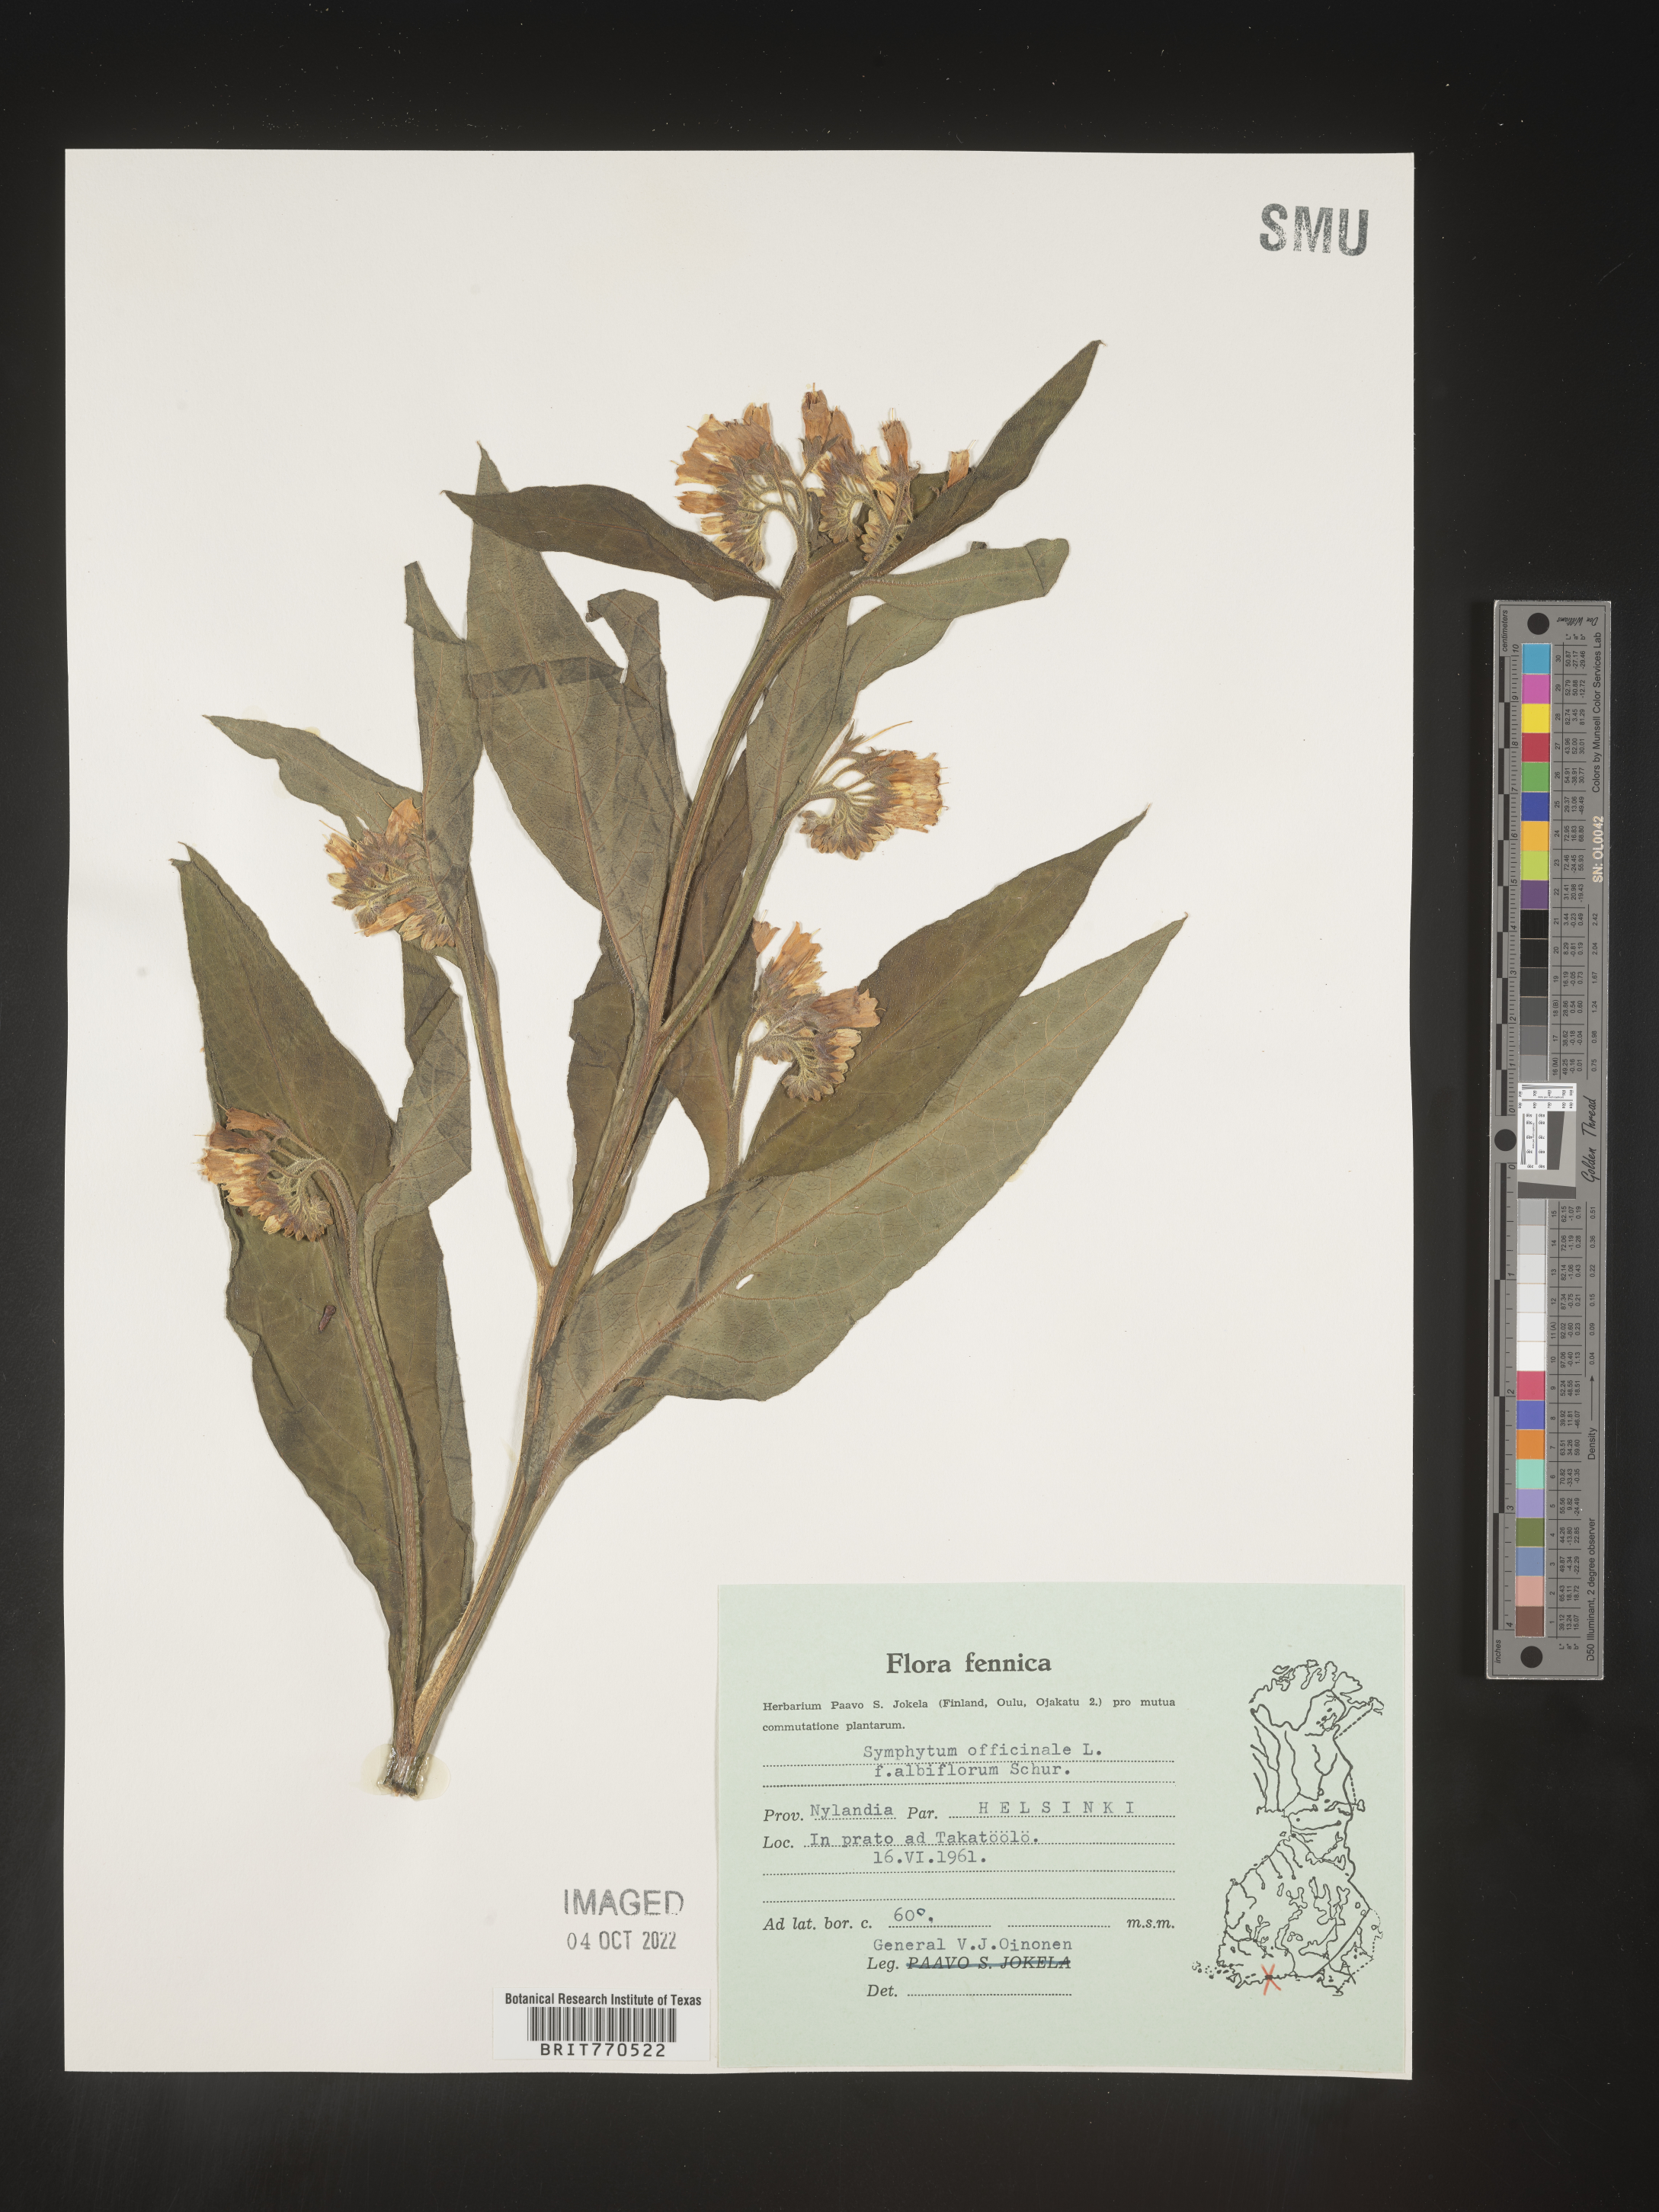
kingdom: Plantae
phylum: Tracheophyta
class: Magnoliopsida
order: Boraginales
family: Boraginaceae
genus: Symphytum
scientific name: Symphytum
